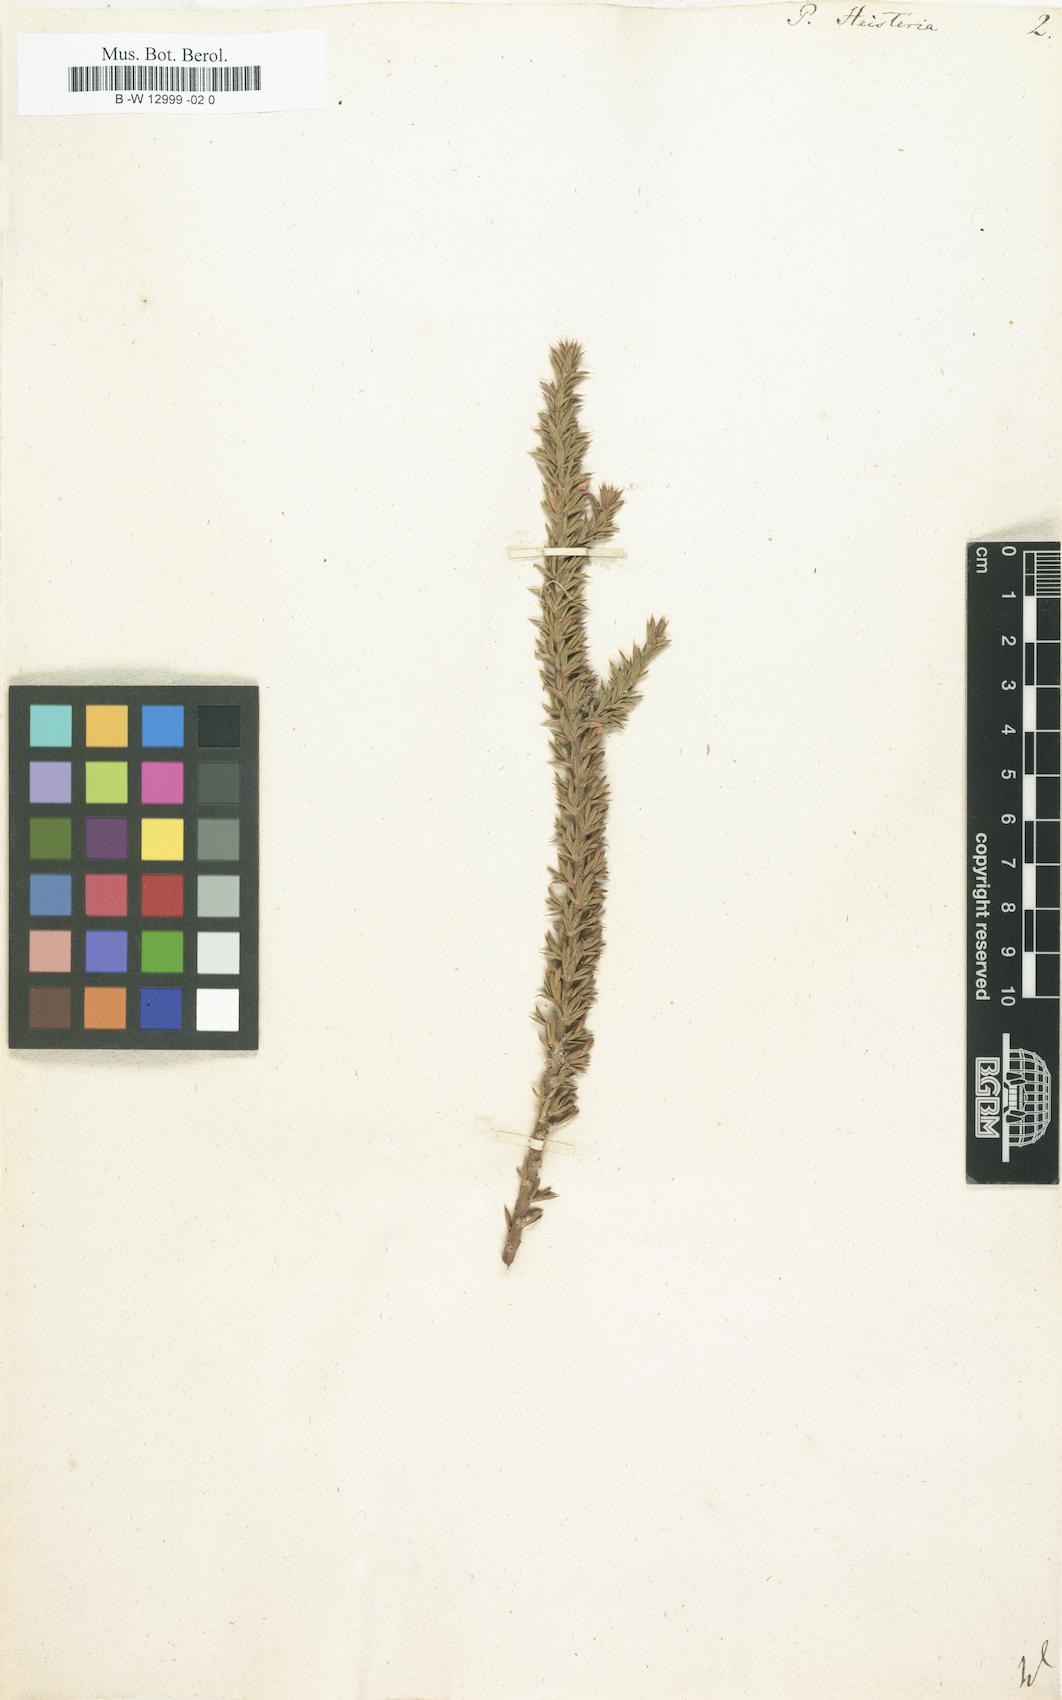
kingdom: Plantae
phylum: Tracheophyta
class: Magnoliopsida
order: Fabales
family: Polygalaceae
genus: Muraltia
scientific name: Muraltia heisteria
